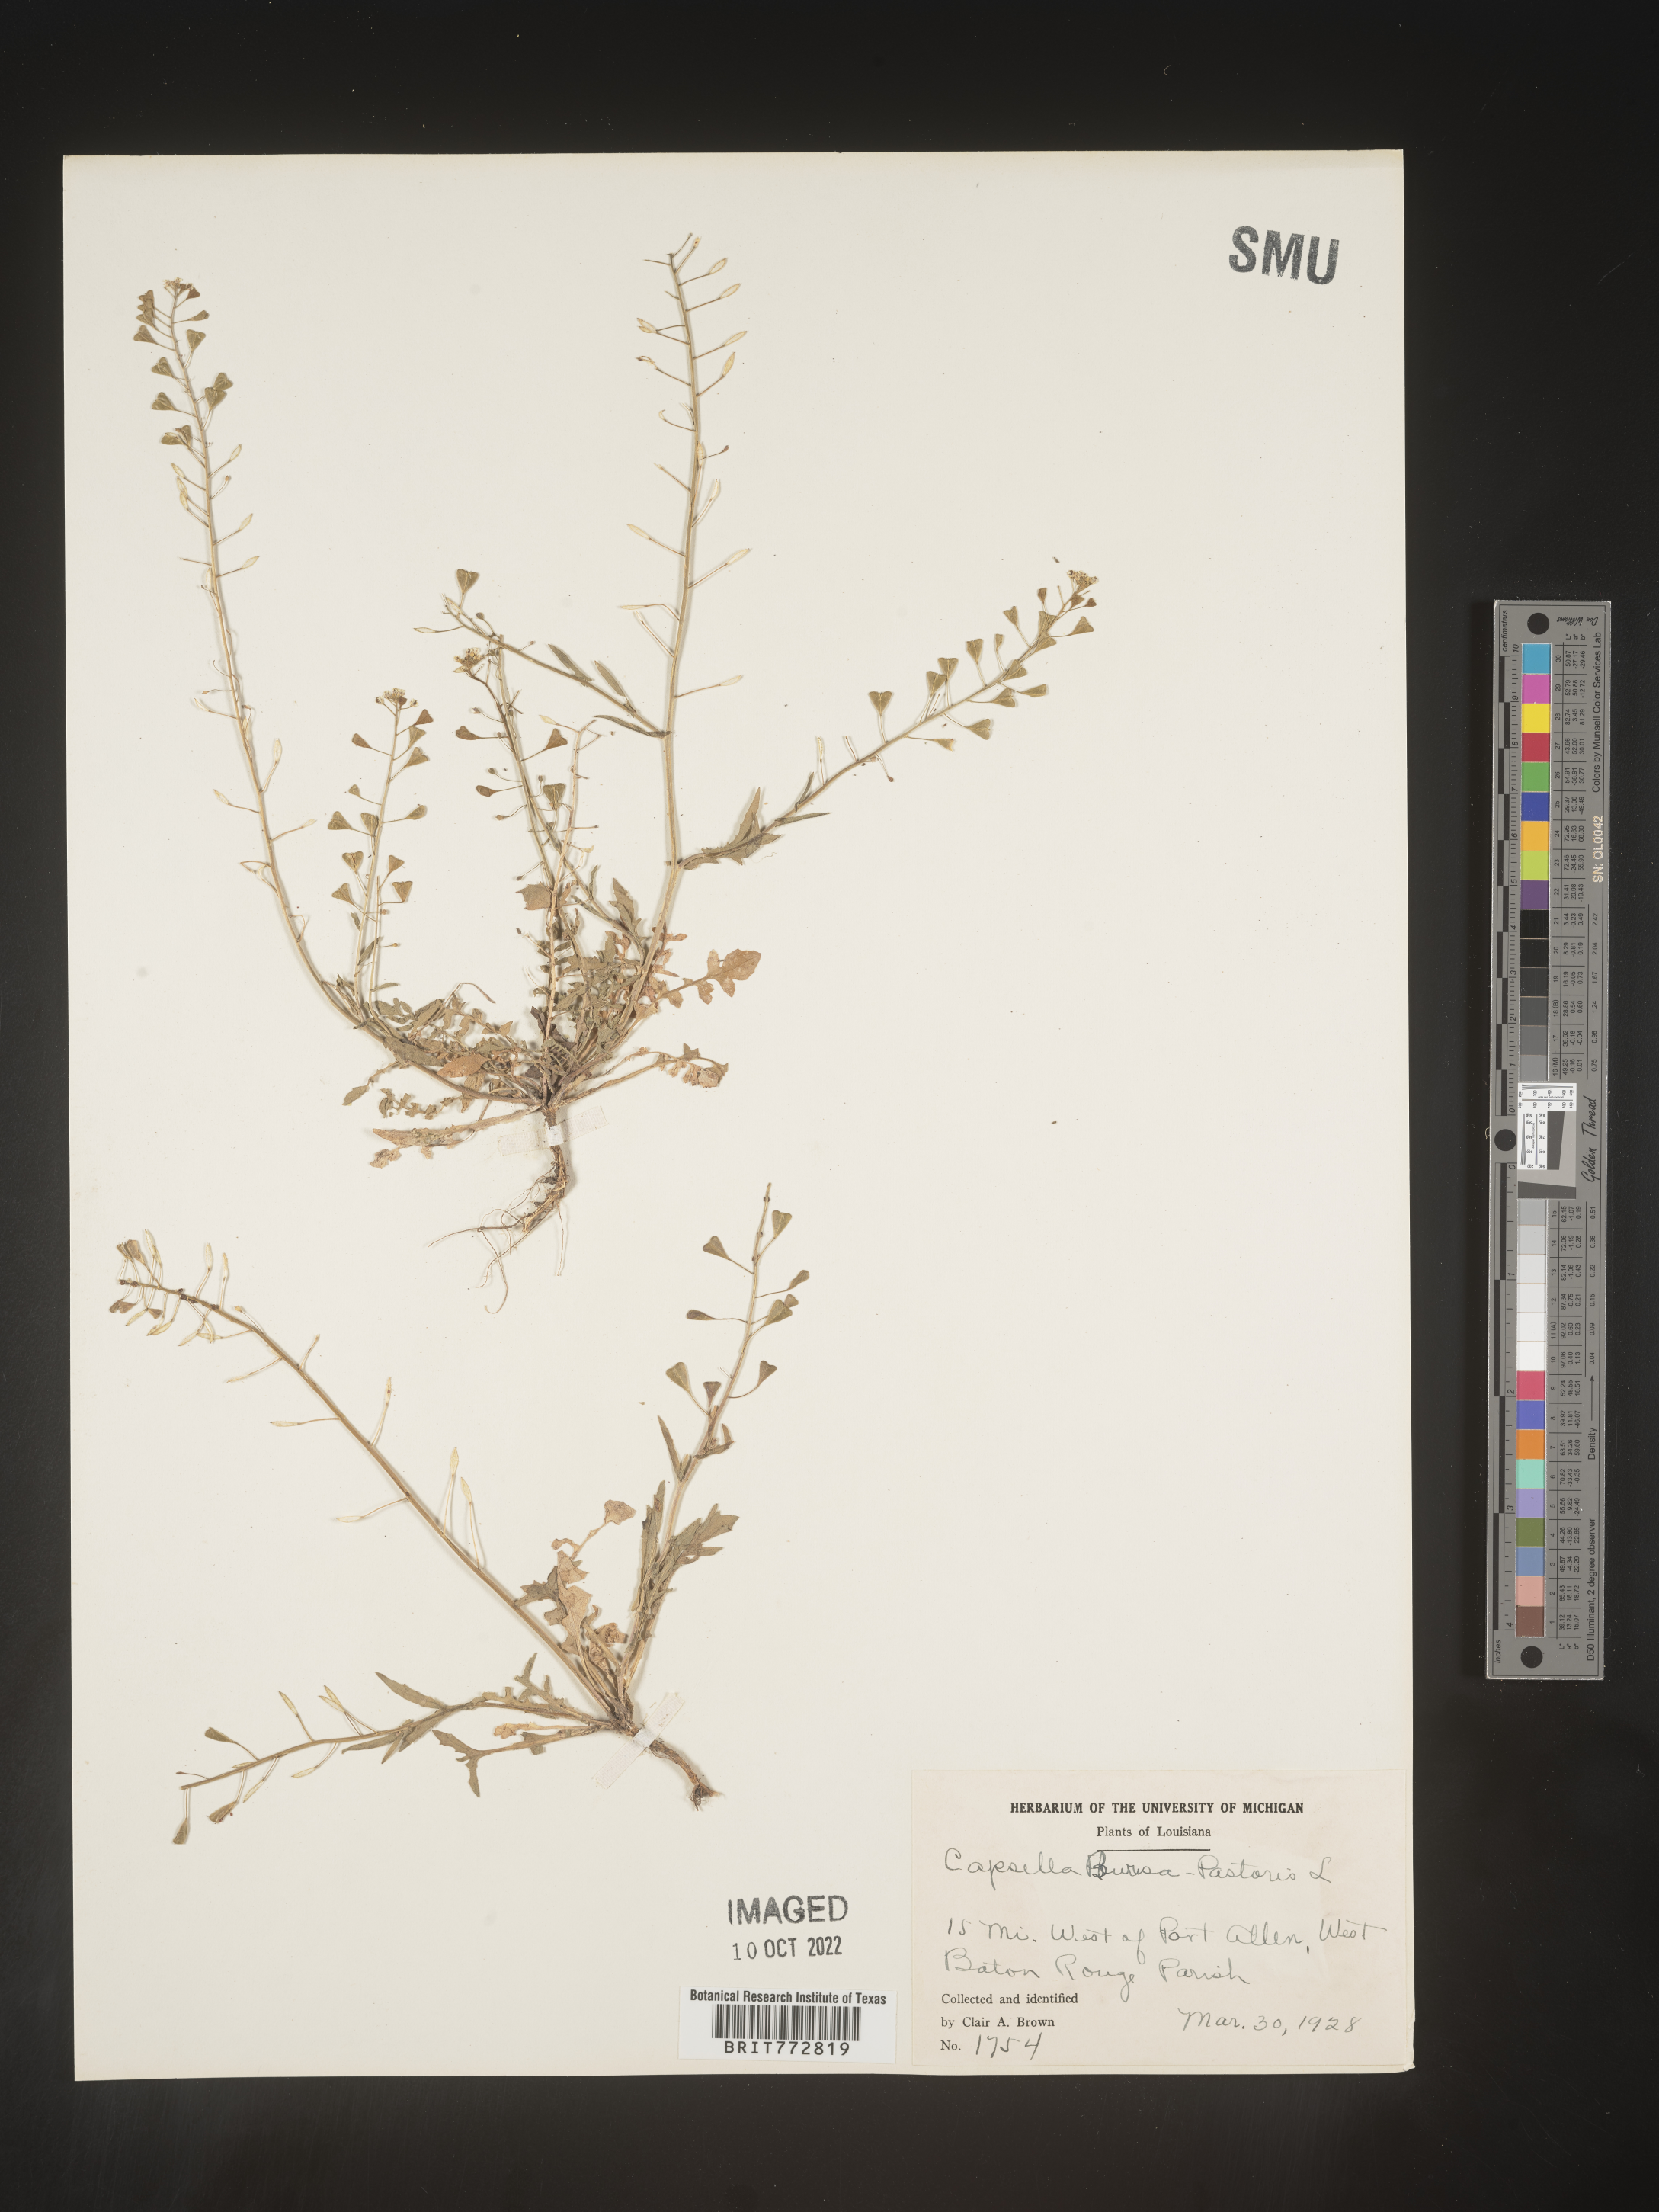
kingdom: Plantae
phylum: Tracheophyta
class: Magnoliopsida
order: Brassicales
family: Brassicaceae
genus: Capsella
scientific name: Capsella bursa-pastoris
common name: Shepherd's purse
